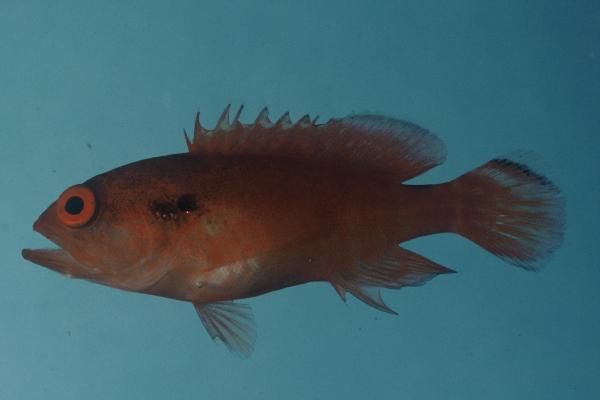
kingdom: Animalia
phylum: Chordata
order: Perciformes
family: Serranidae
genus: Cephalopholis
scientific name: Cephalopholis leopardus
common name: Leopard hind
